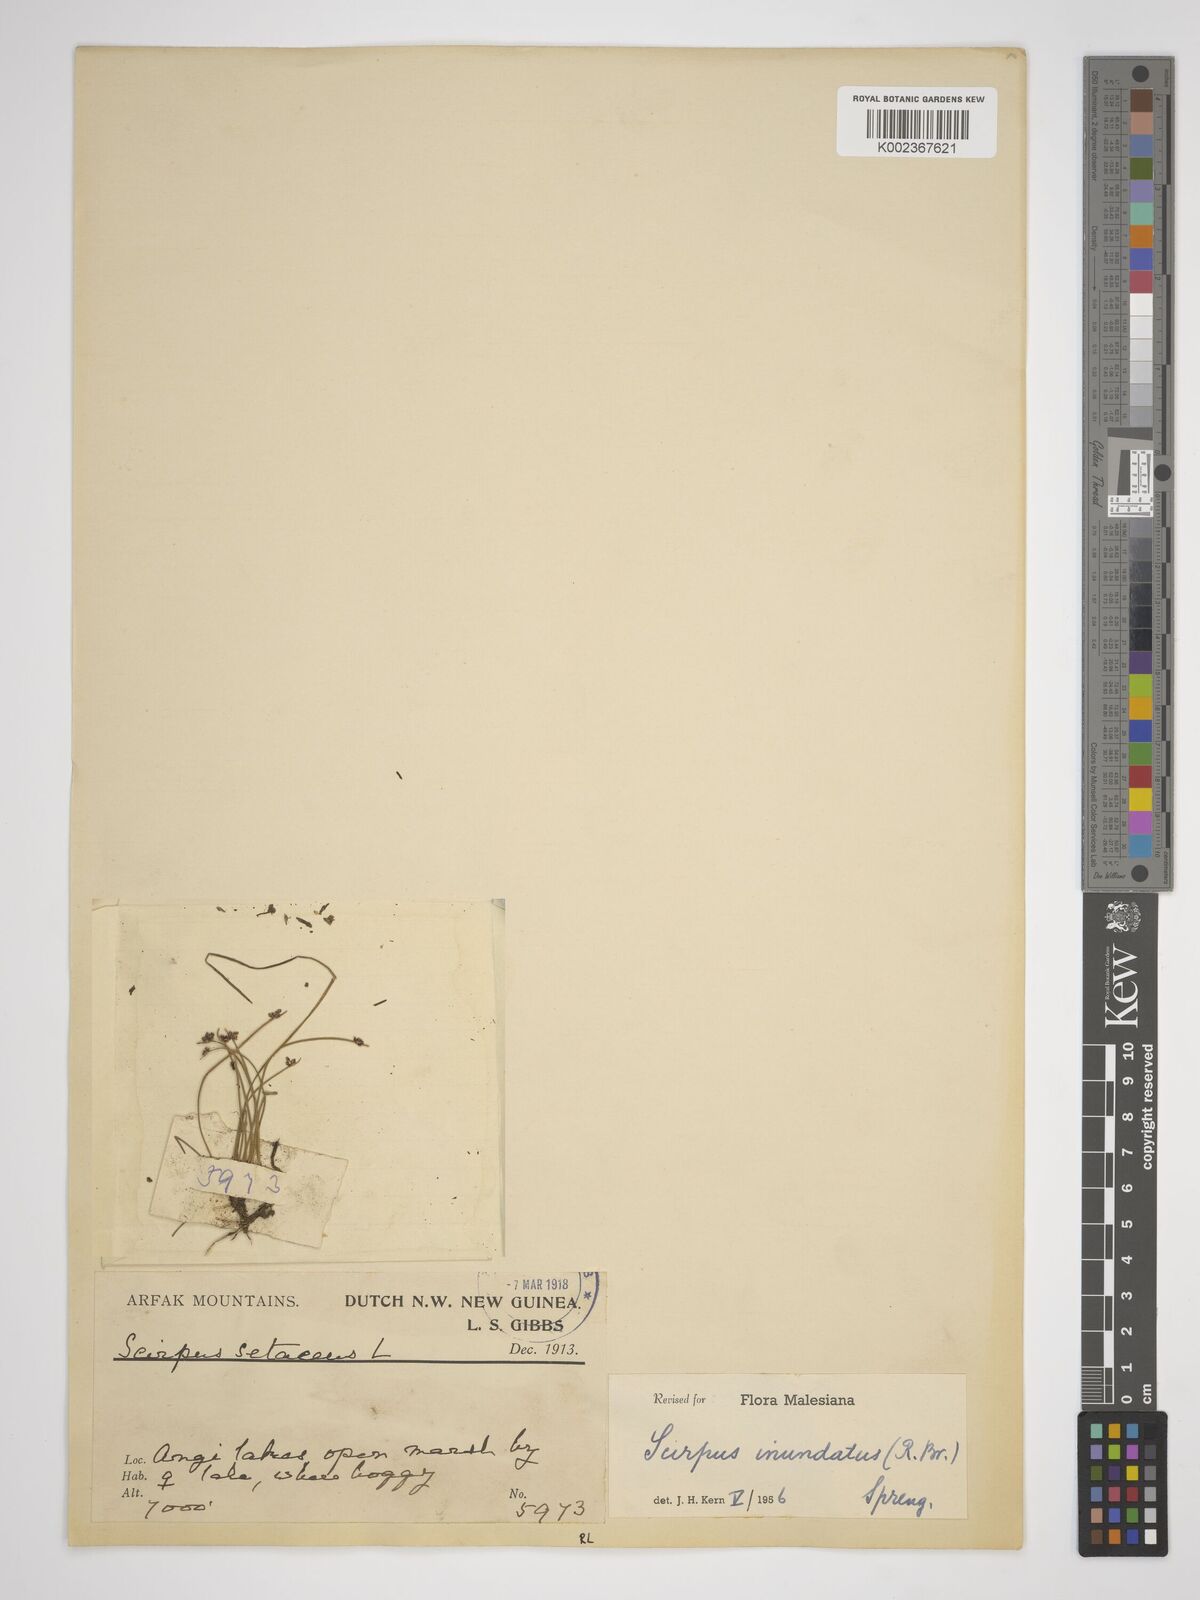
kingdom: Plantae
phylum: Tracheophyta
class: Liliopsida
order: Poales
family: Cyperaceae
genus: Isolepis
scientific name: Isolepis inundata
